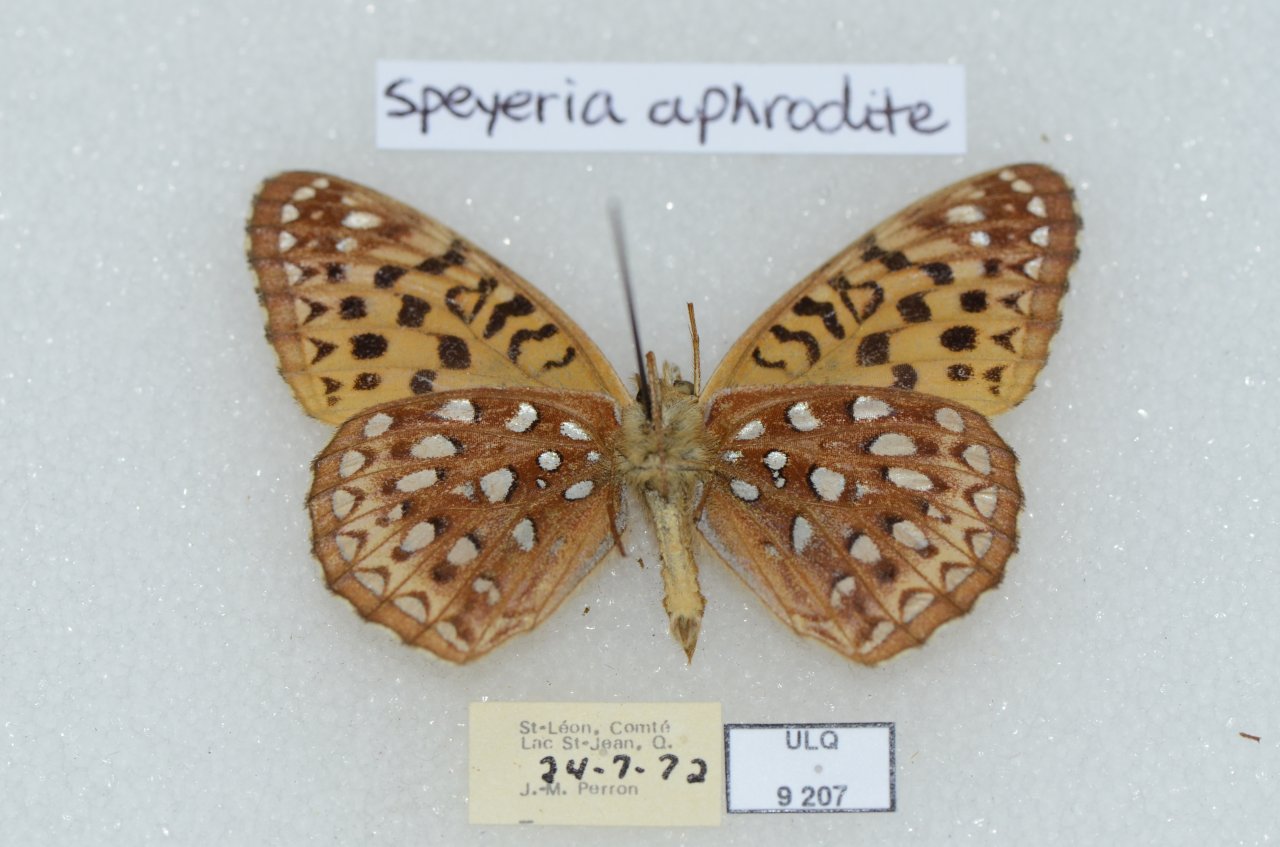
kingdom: Animalia
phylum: Arthropoda
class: Insecta
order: Lepidoptera
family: Nymphalidae
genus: Speyeria
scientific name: Speyeria aphrodite
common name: Aphrodite Fritillary
